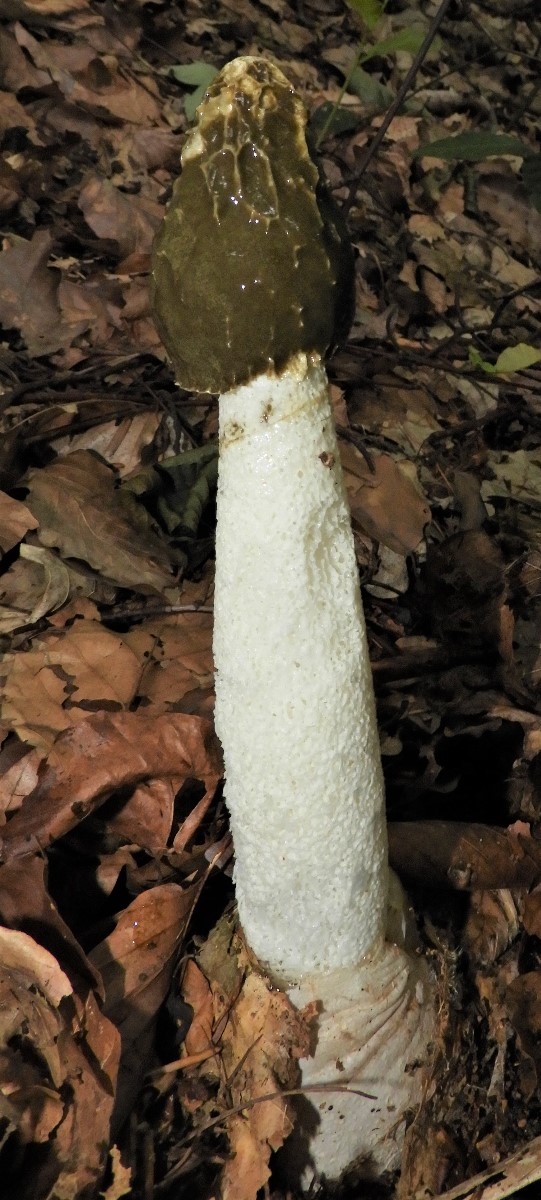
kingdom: Fungi
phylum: Basidiomycota
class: Agaricomycetes
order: Phallales
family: Phallaceae
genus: Phallus
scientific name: Phallus impudicus
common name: almindelig stinksvamp
